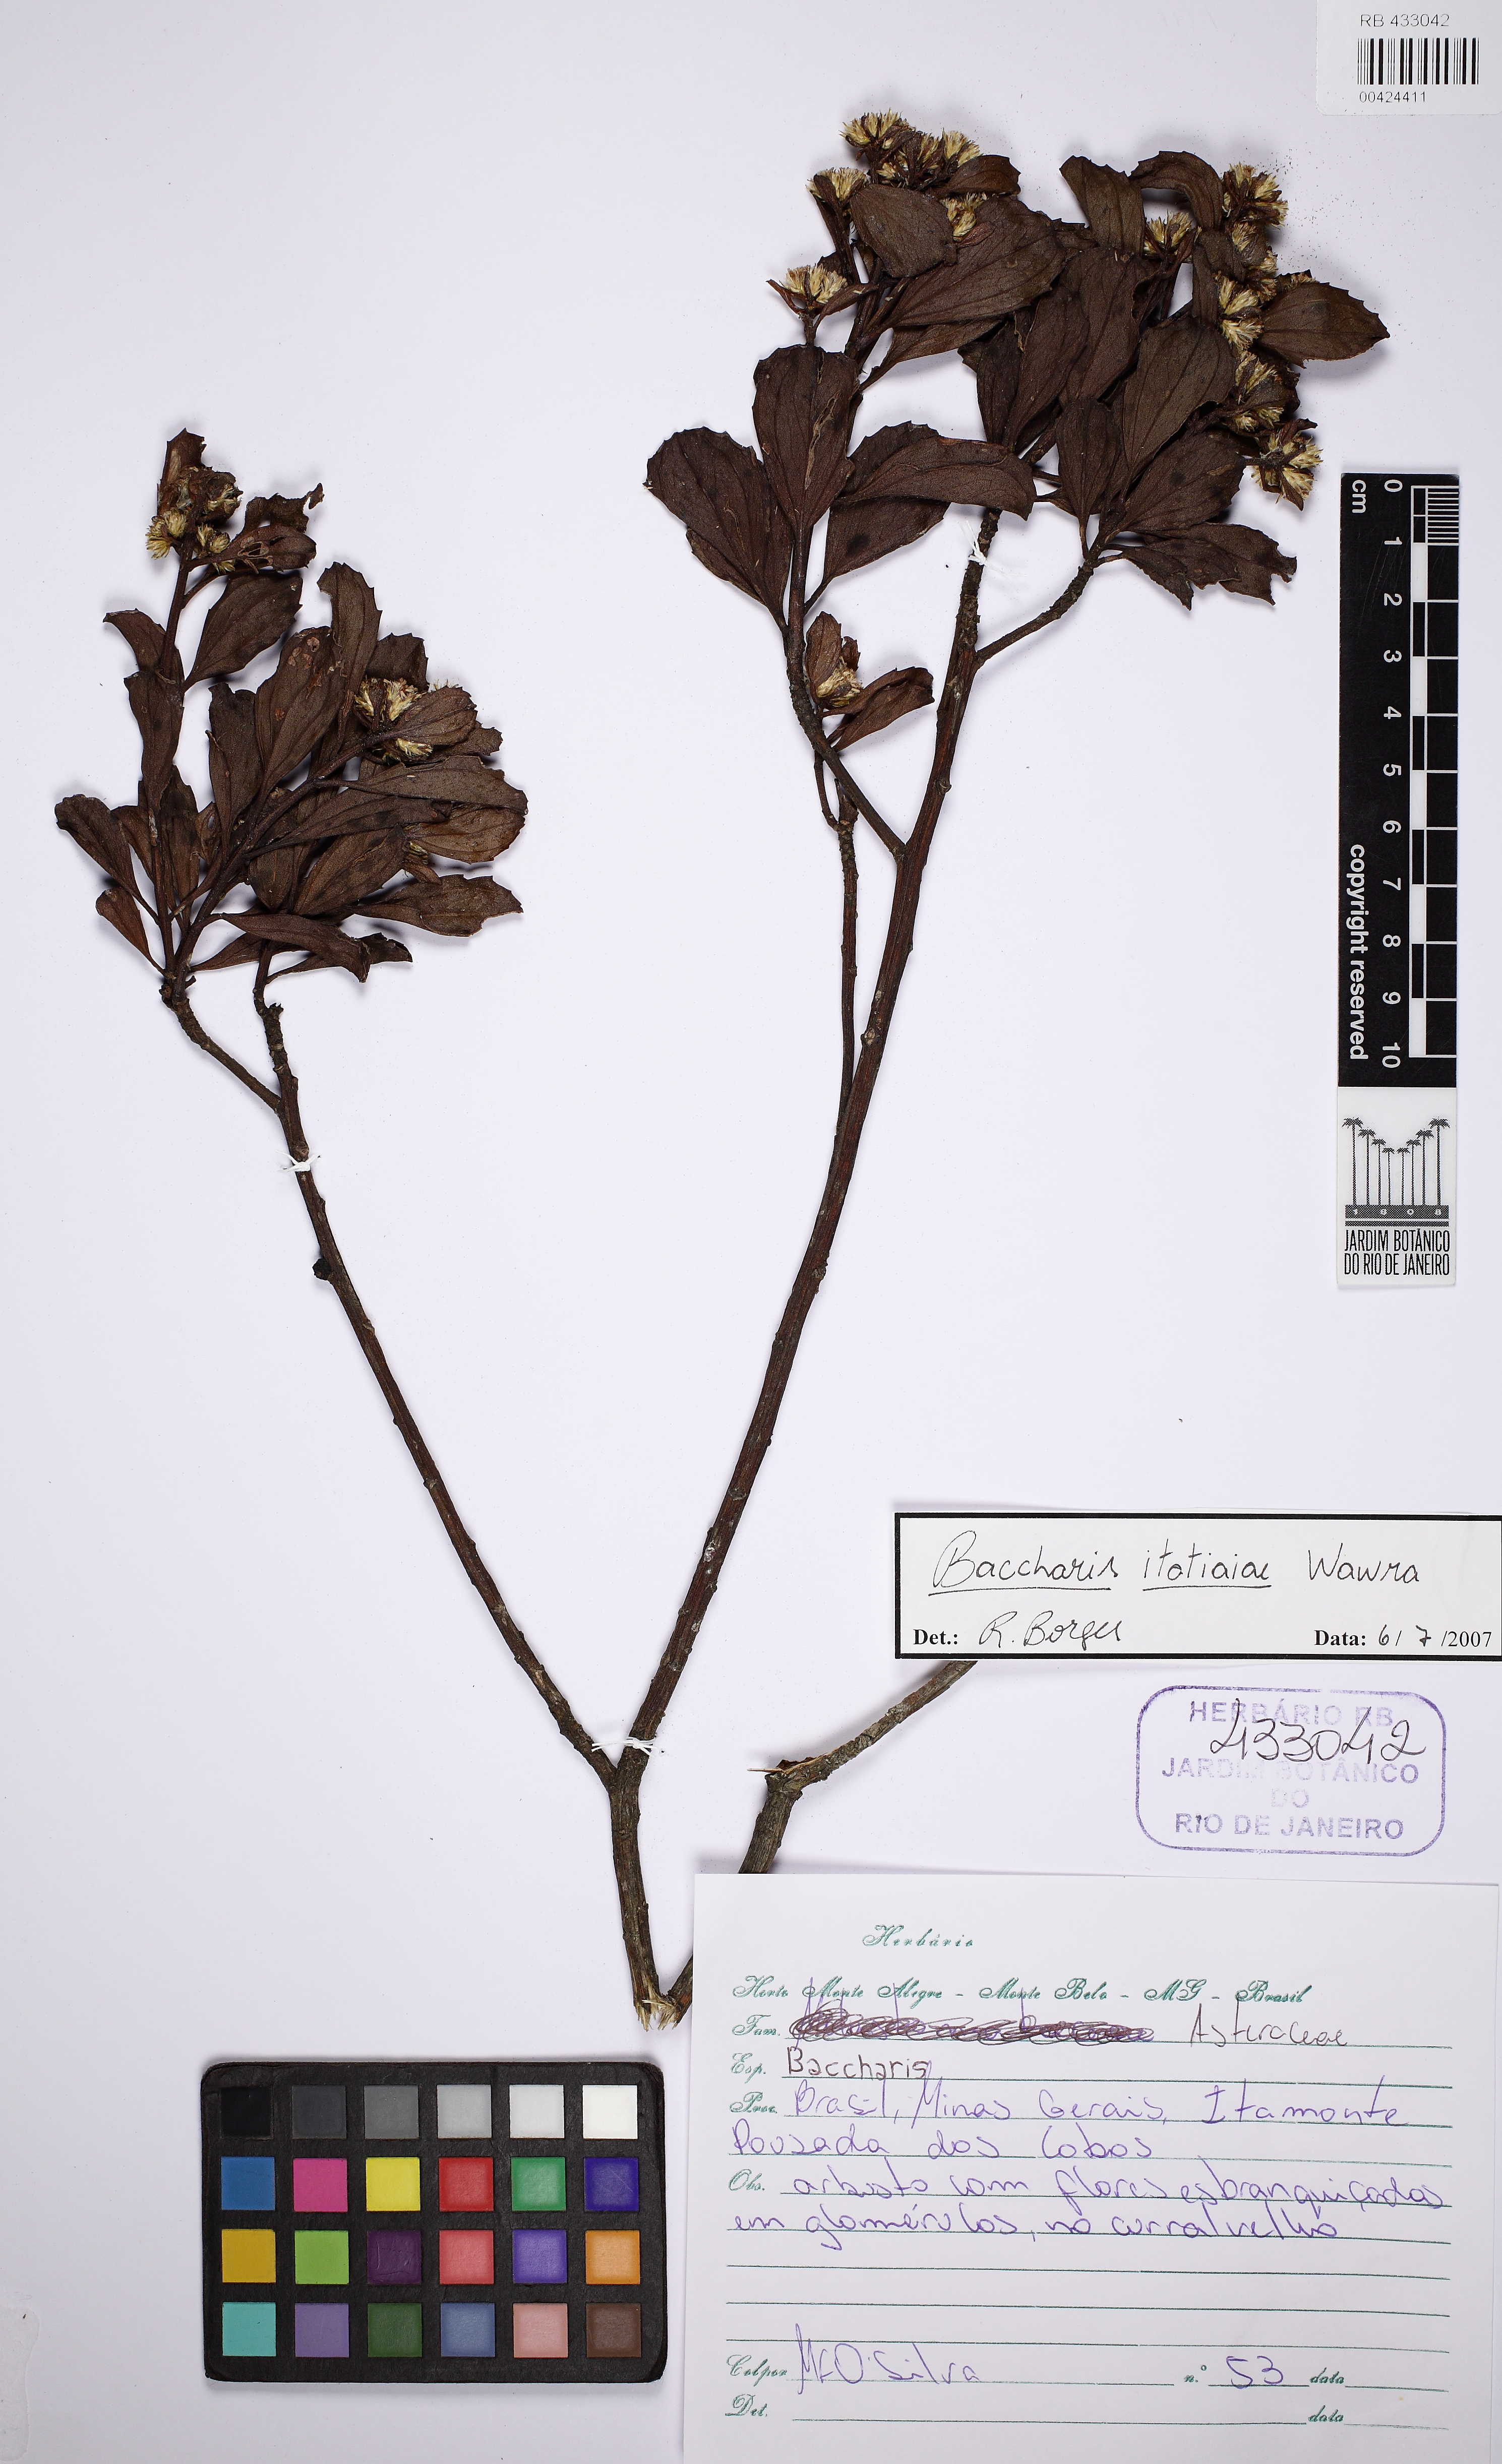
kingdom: Plantae
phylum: Tracheophyta
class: Magnoliopsida
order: Asterales
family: Asteraceae
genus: Baccharis
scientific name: Baccharis itatiaiae
